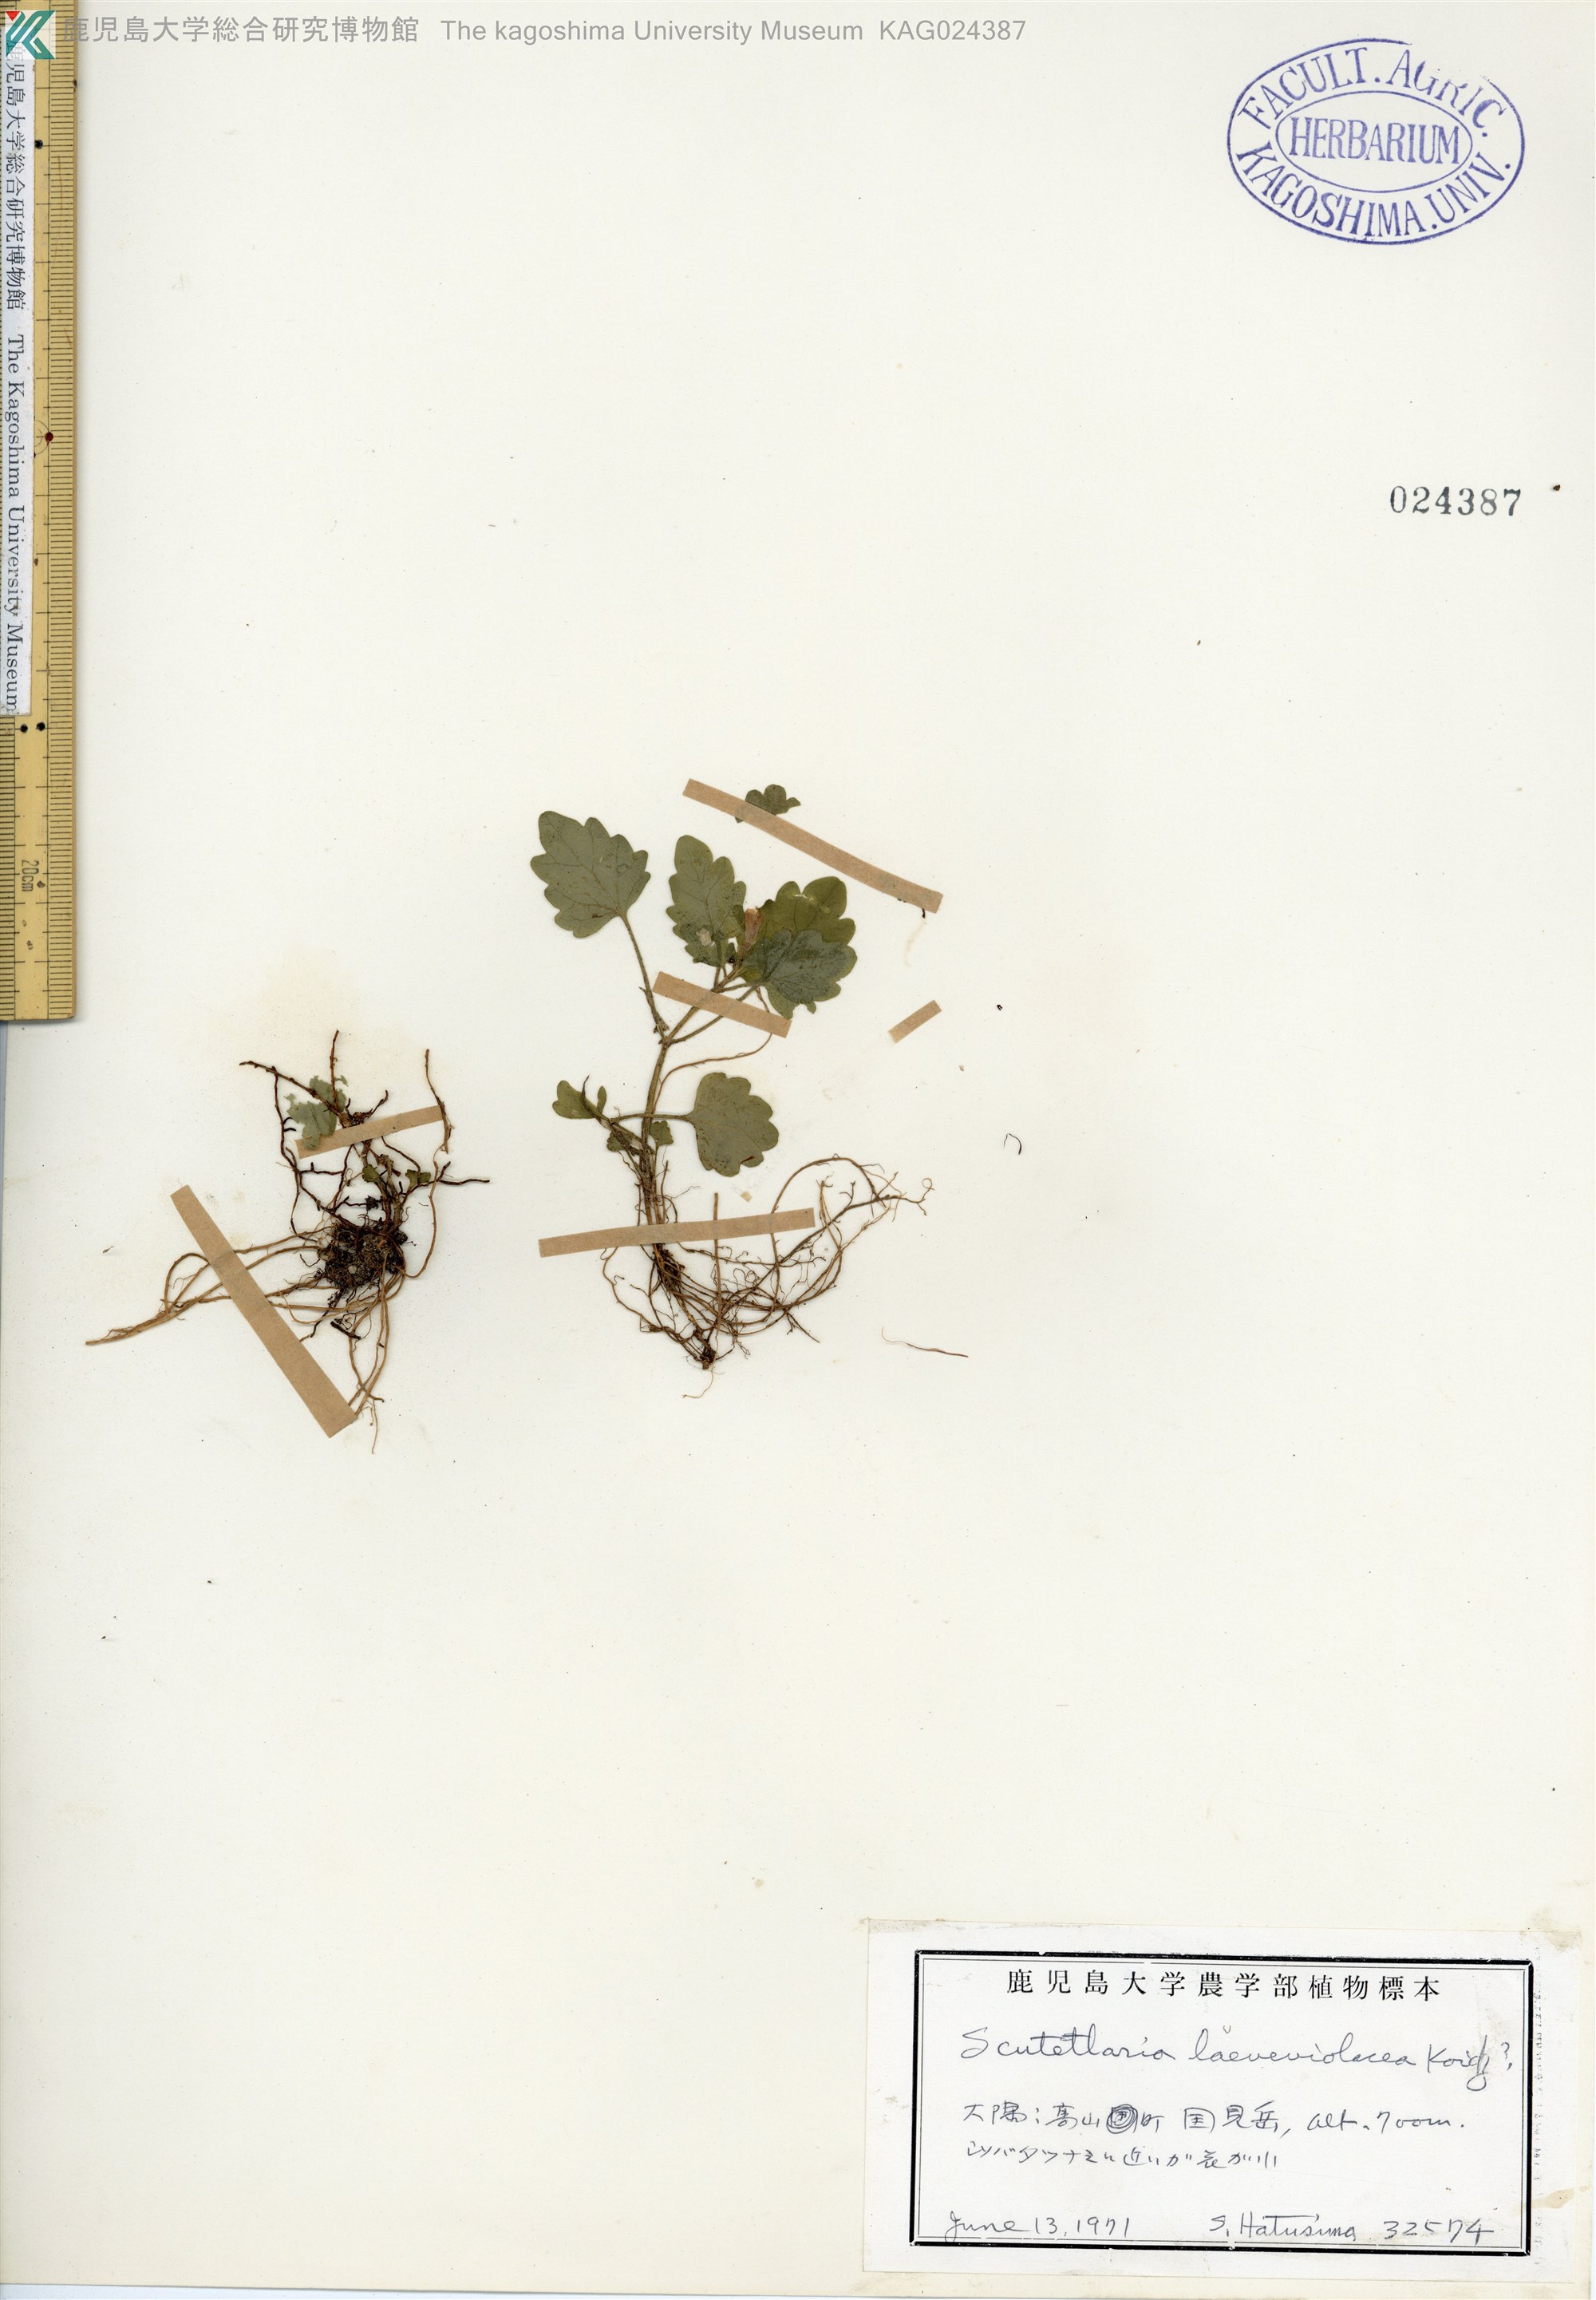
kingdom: Plantae
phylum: Tracheophyta
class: Magnoliopsida
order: Lamiales
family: Lamiaceae
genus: Scutellaria
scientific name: Scutellaria laeteviolacea
